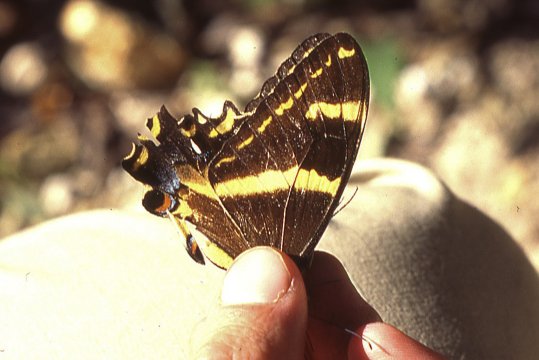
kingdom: Animalia
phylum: Arthropoda
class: Insecta
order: Lepidoptera
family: Papilionidae
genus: Papilio
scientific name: Papilio machaonides
